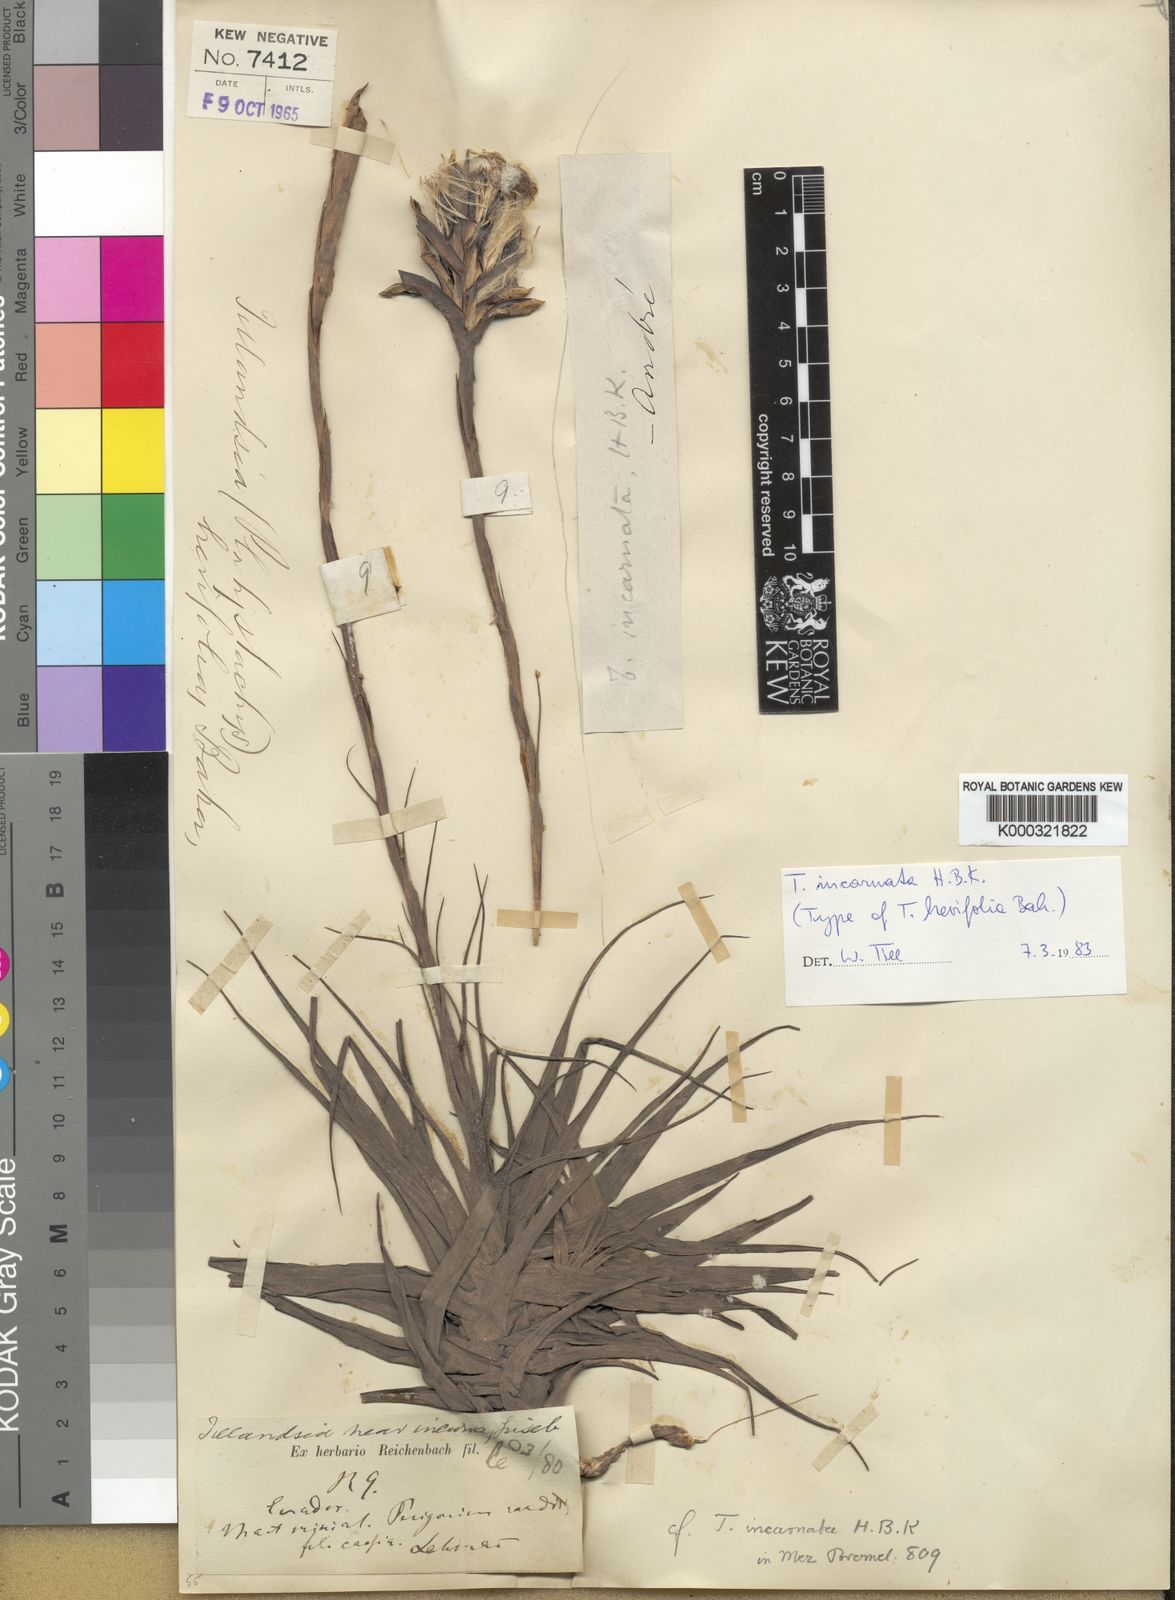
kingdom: Plantae
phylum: Tracheophyta
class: Liliopsida
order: Poales
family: Bromeliaceae
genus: Tillandsia
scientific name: Tillandsia incarnata
